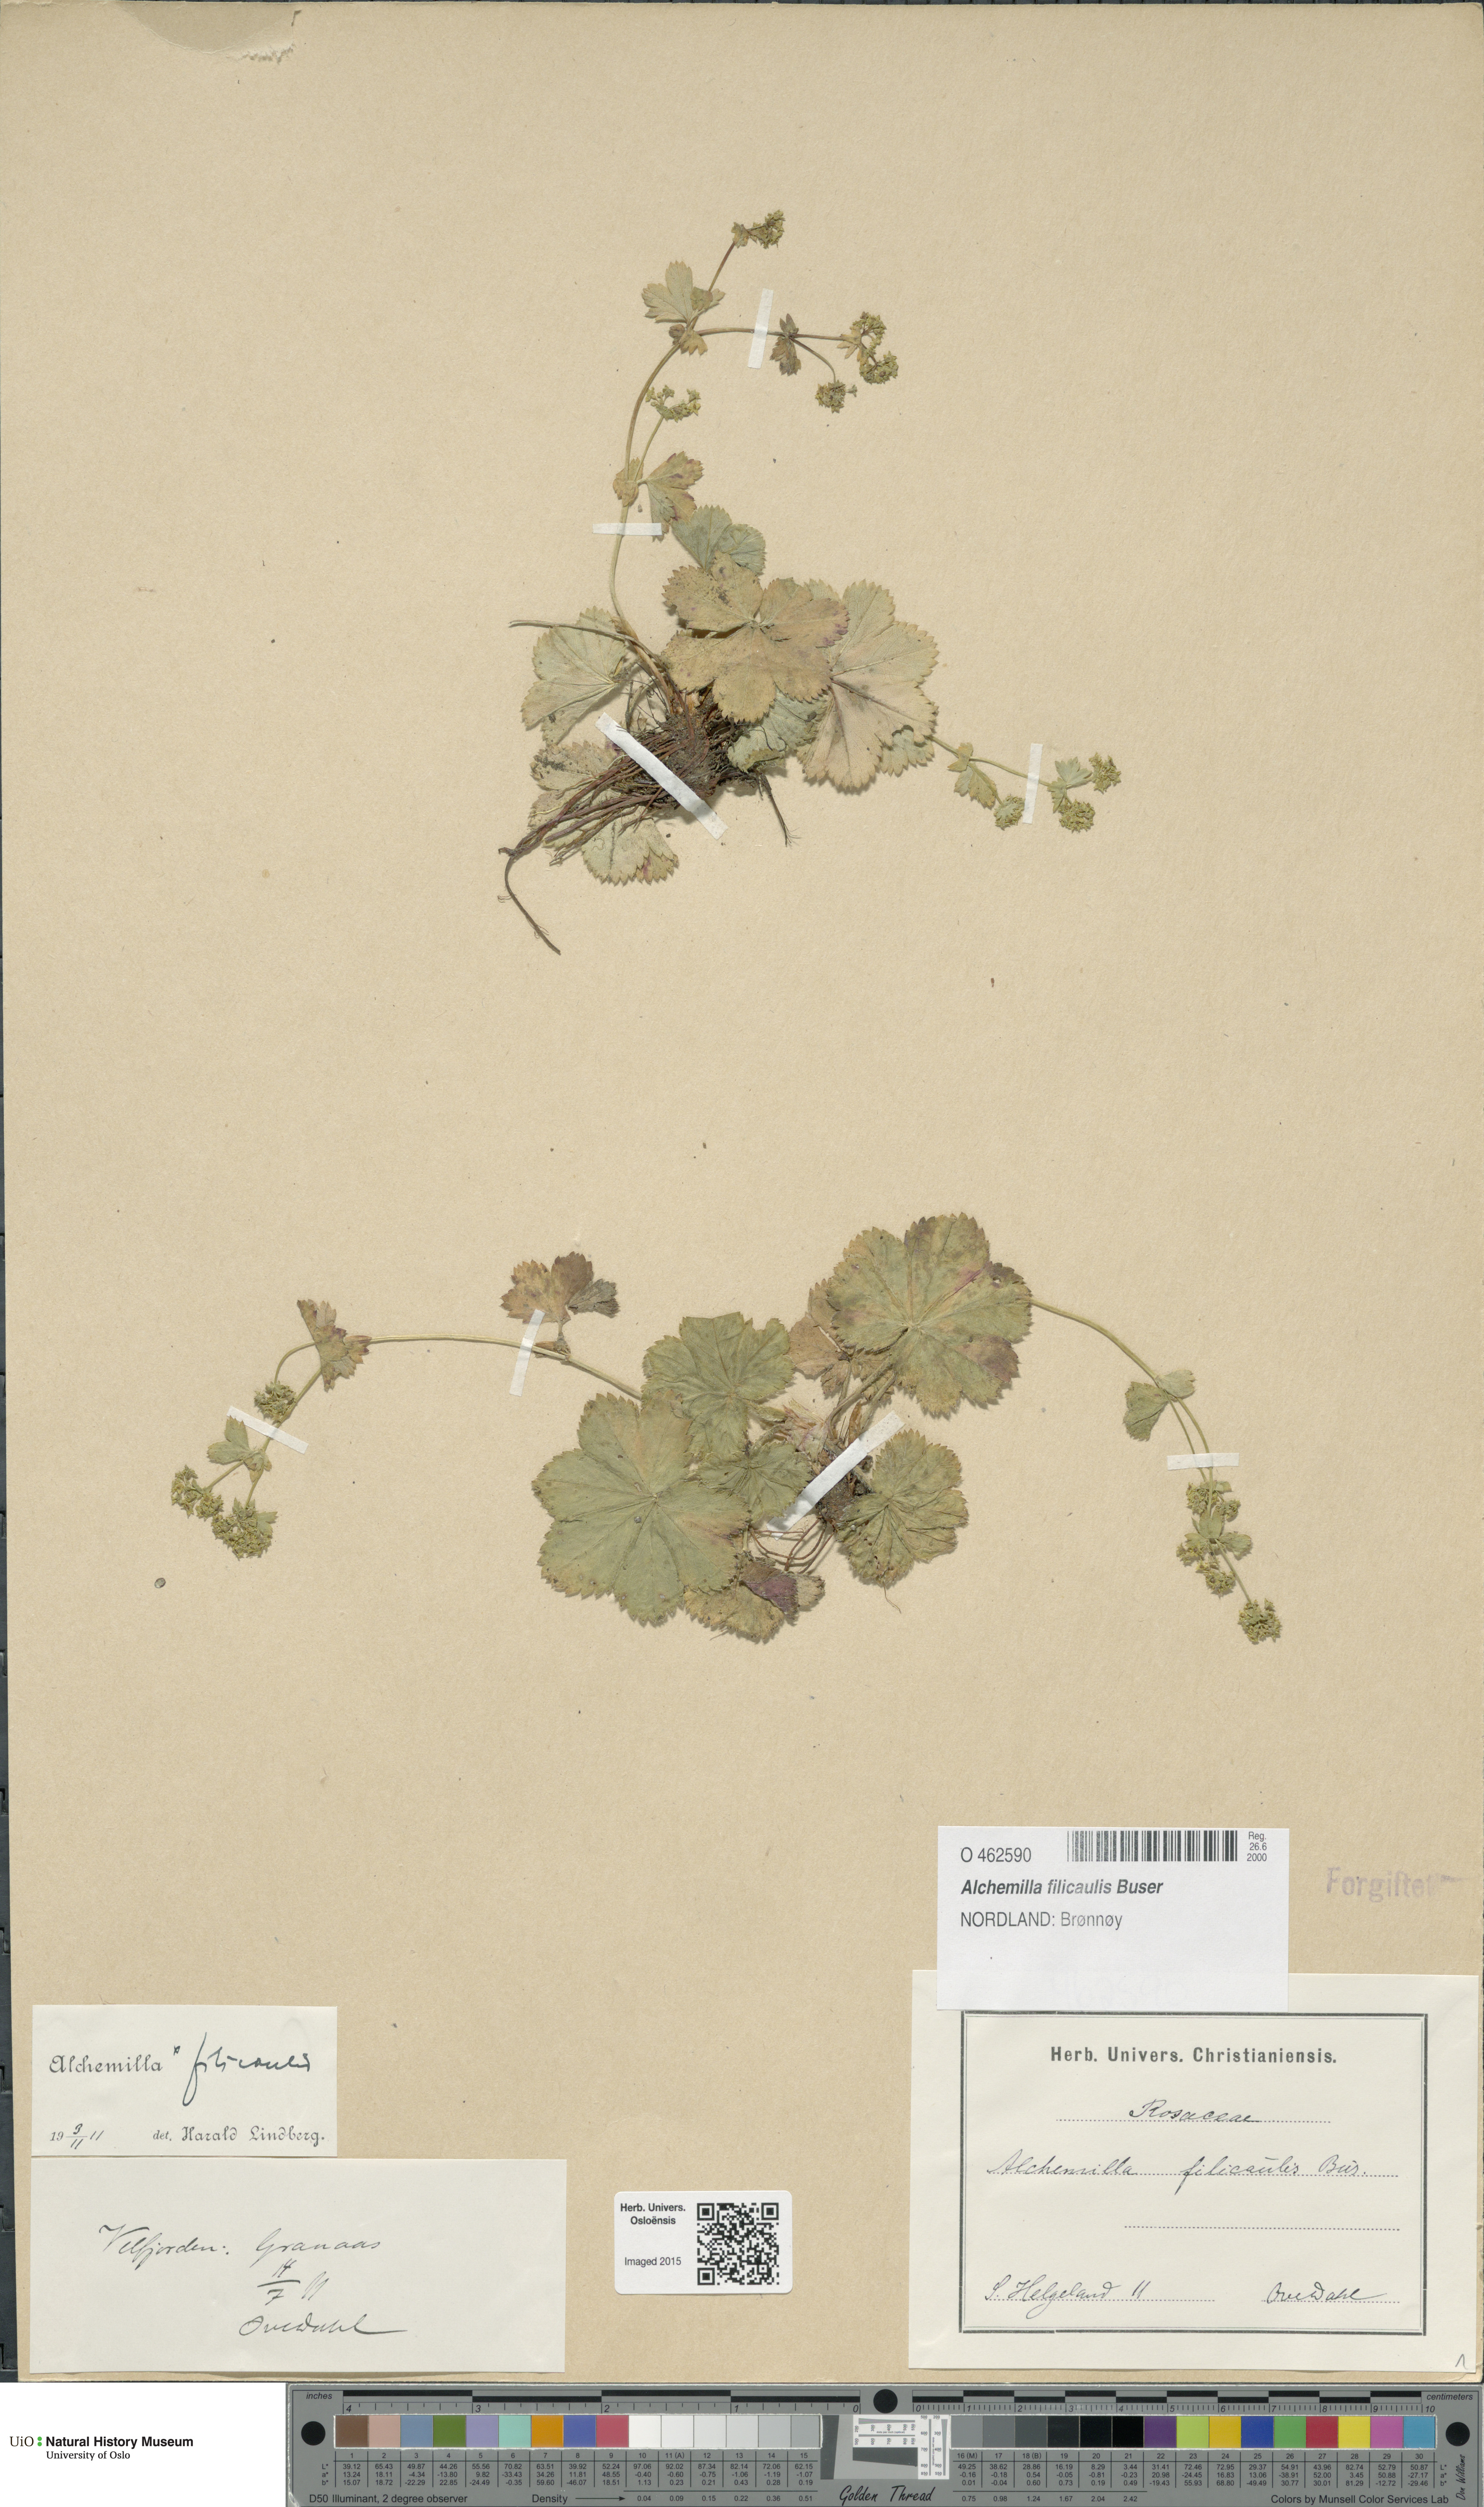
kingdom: Plantae
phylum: Tracheophyta
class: Magnoliopsida
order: Rosales
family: Rosaceae
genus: Alchemilla
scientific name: Alchemilla filicaulis
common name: Hairy lady's-mantle
